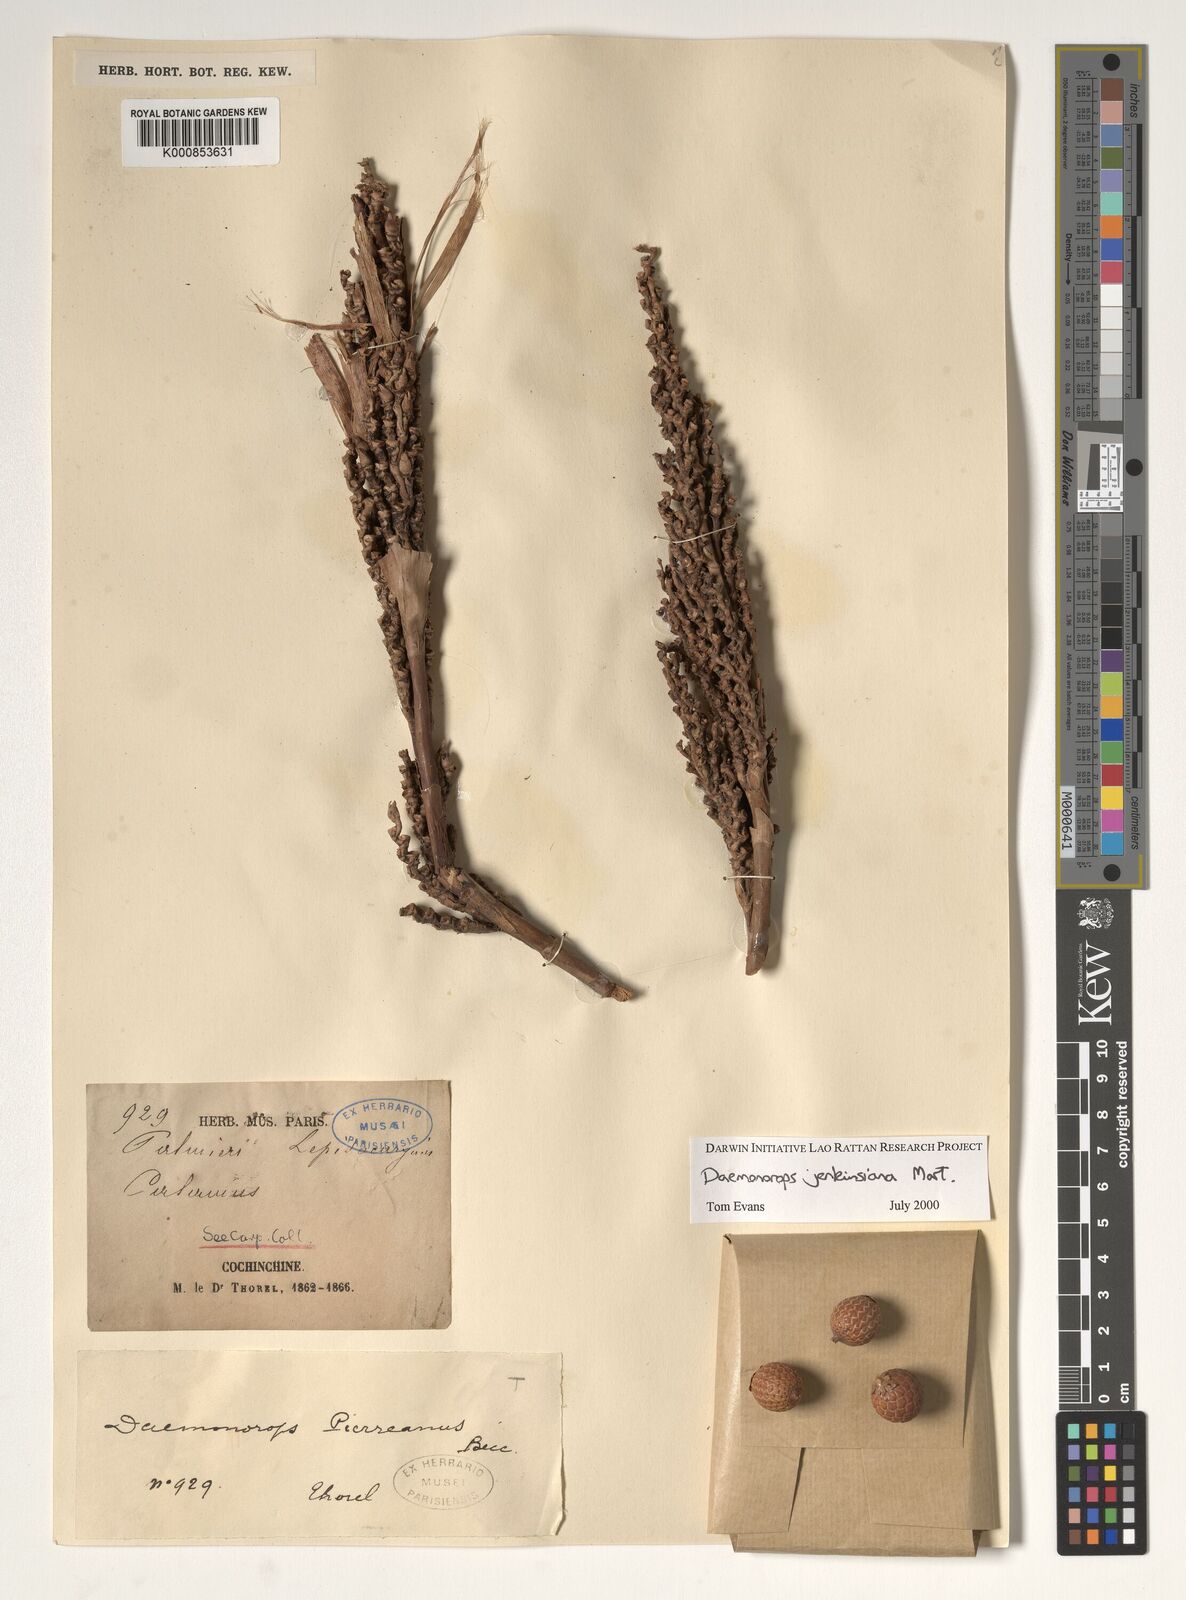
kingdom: Plantae
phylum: Tracheophyta
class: Liliopsida
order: Arecales
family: Arecaceae
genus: Calamus
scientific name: Calamus melanochaetes
